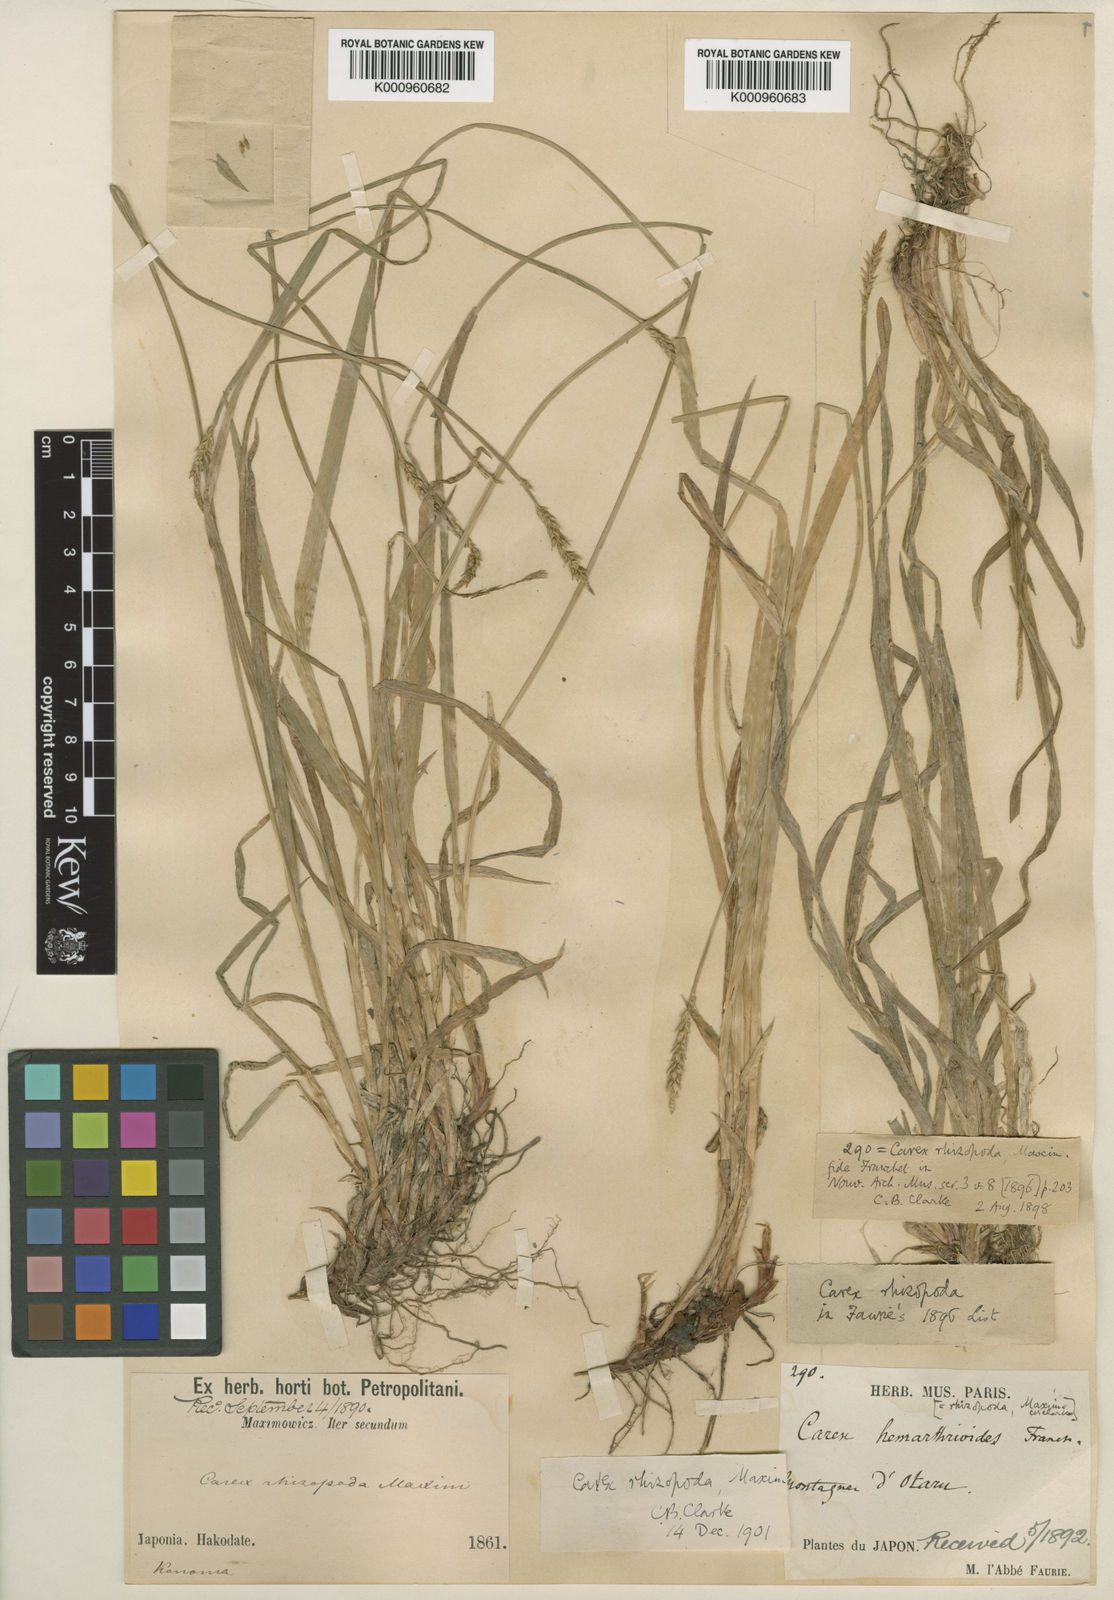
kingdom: Plantae
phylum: Tracheophyta
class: Liliopsida
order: Poales
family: Cyperaceae
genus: Carex
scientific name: Carex rhizopoda
